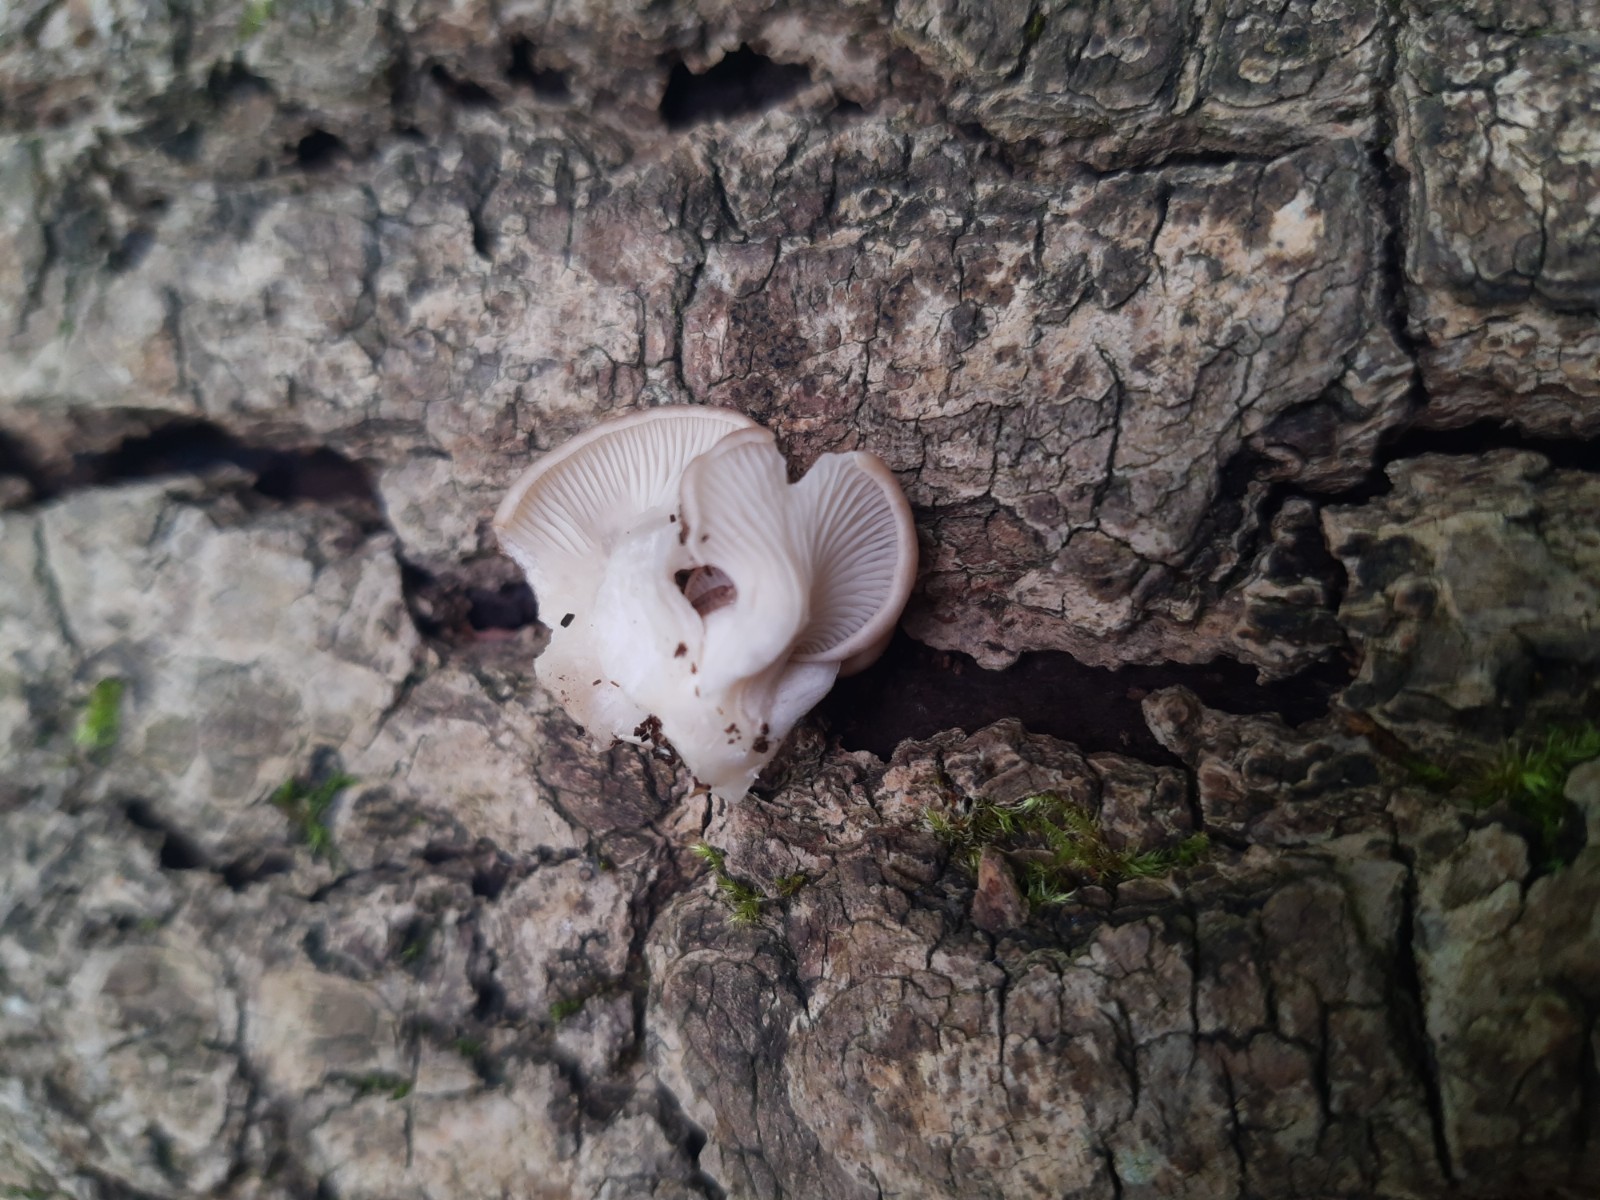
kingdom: Fungi
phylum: Basidiomycota
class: Agaricomycetes
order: Agaricales
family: Pleurotaceae
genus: Pleurotus
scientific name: Pleurotus ostreatus
